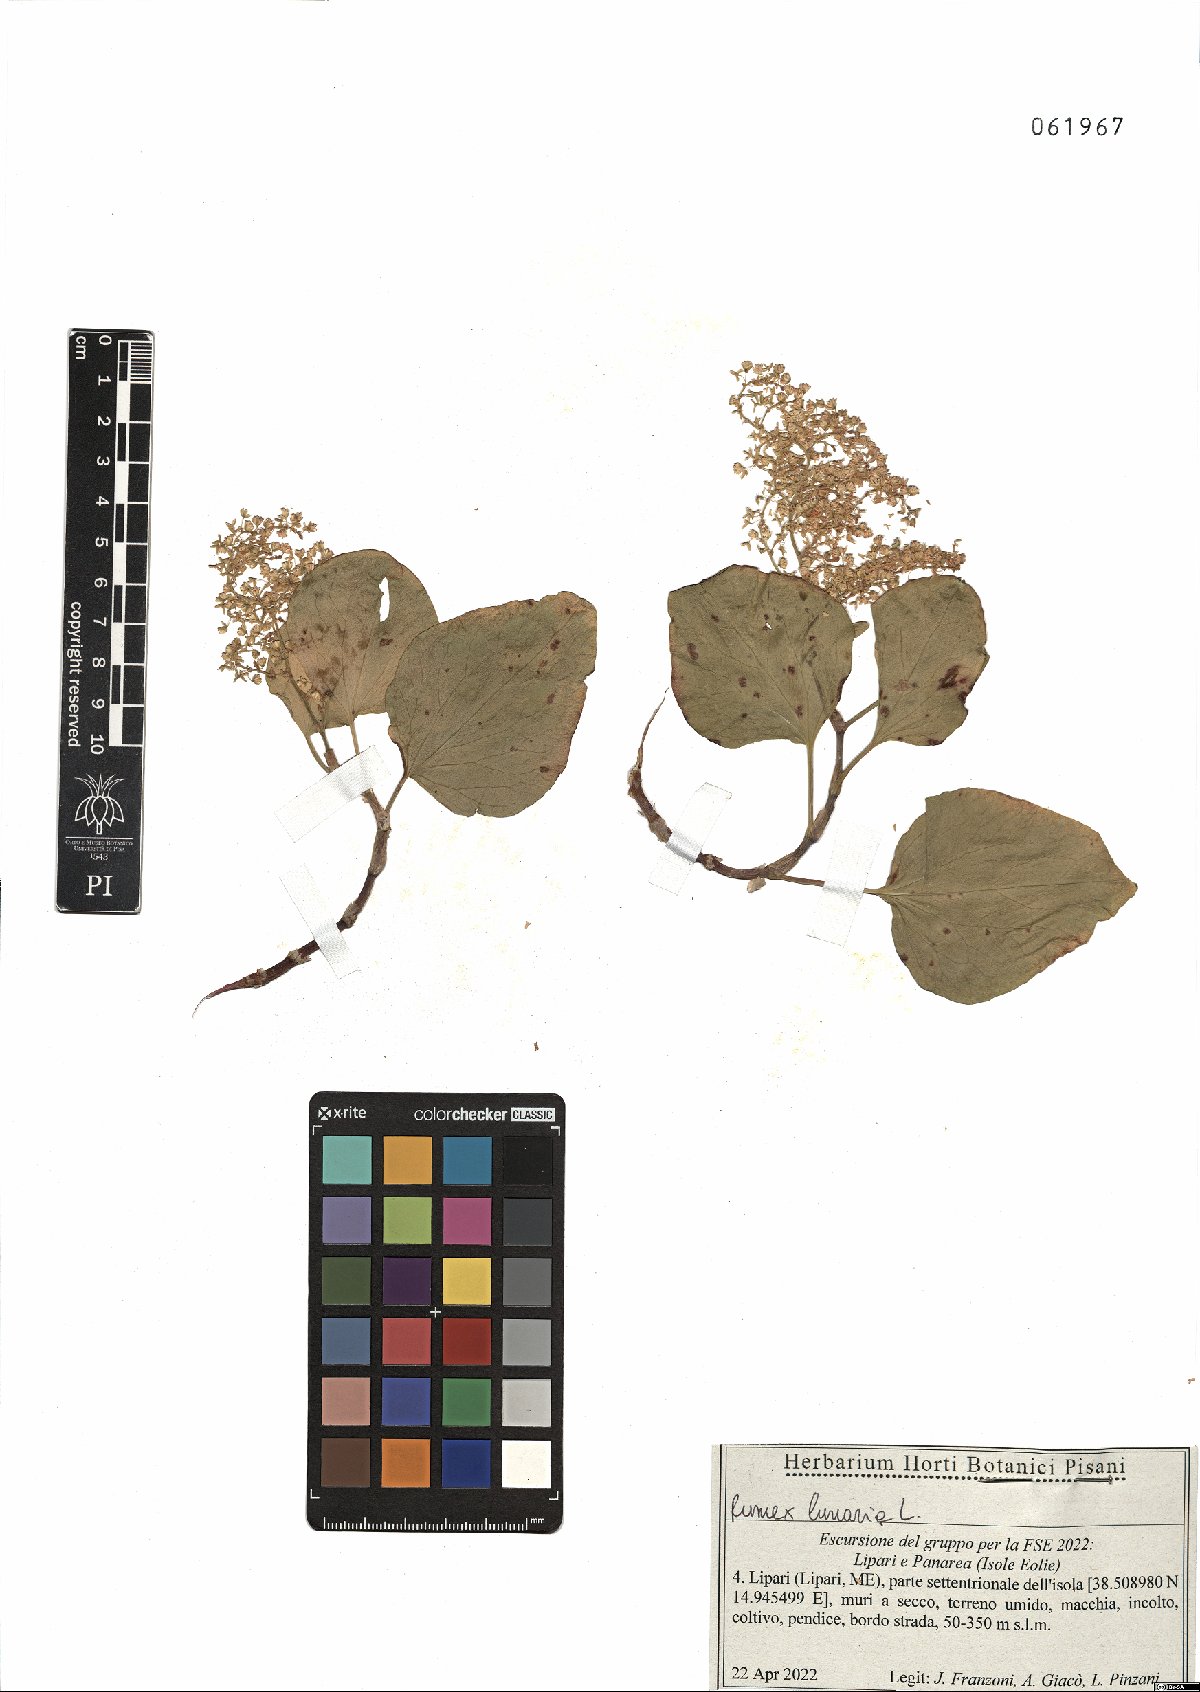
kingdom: Plantae
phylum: Tracheophyta
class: Magnoliopsida
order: Caryophyllales
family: Polygonaceae
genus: Rumex
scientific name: Rumex lunaria
